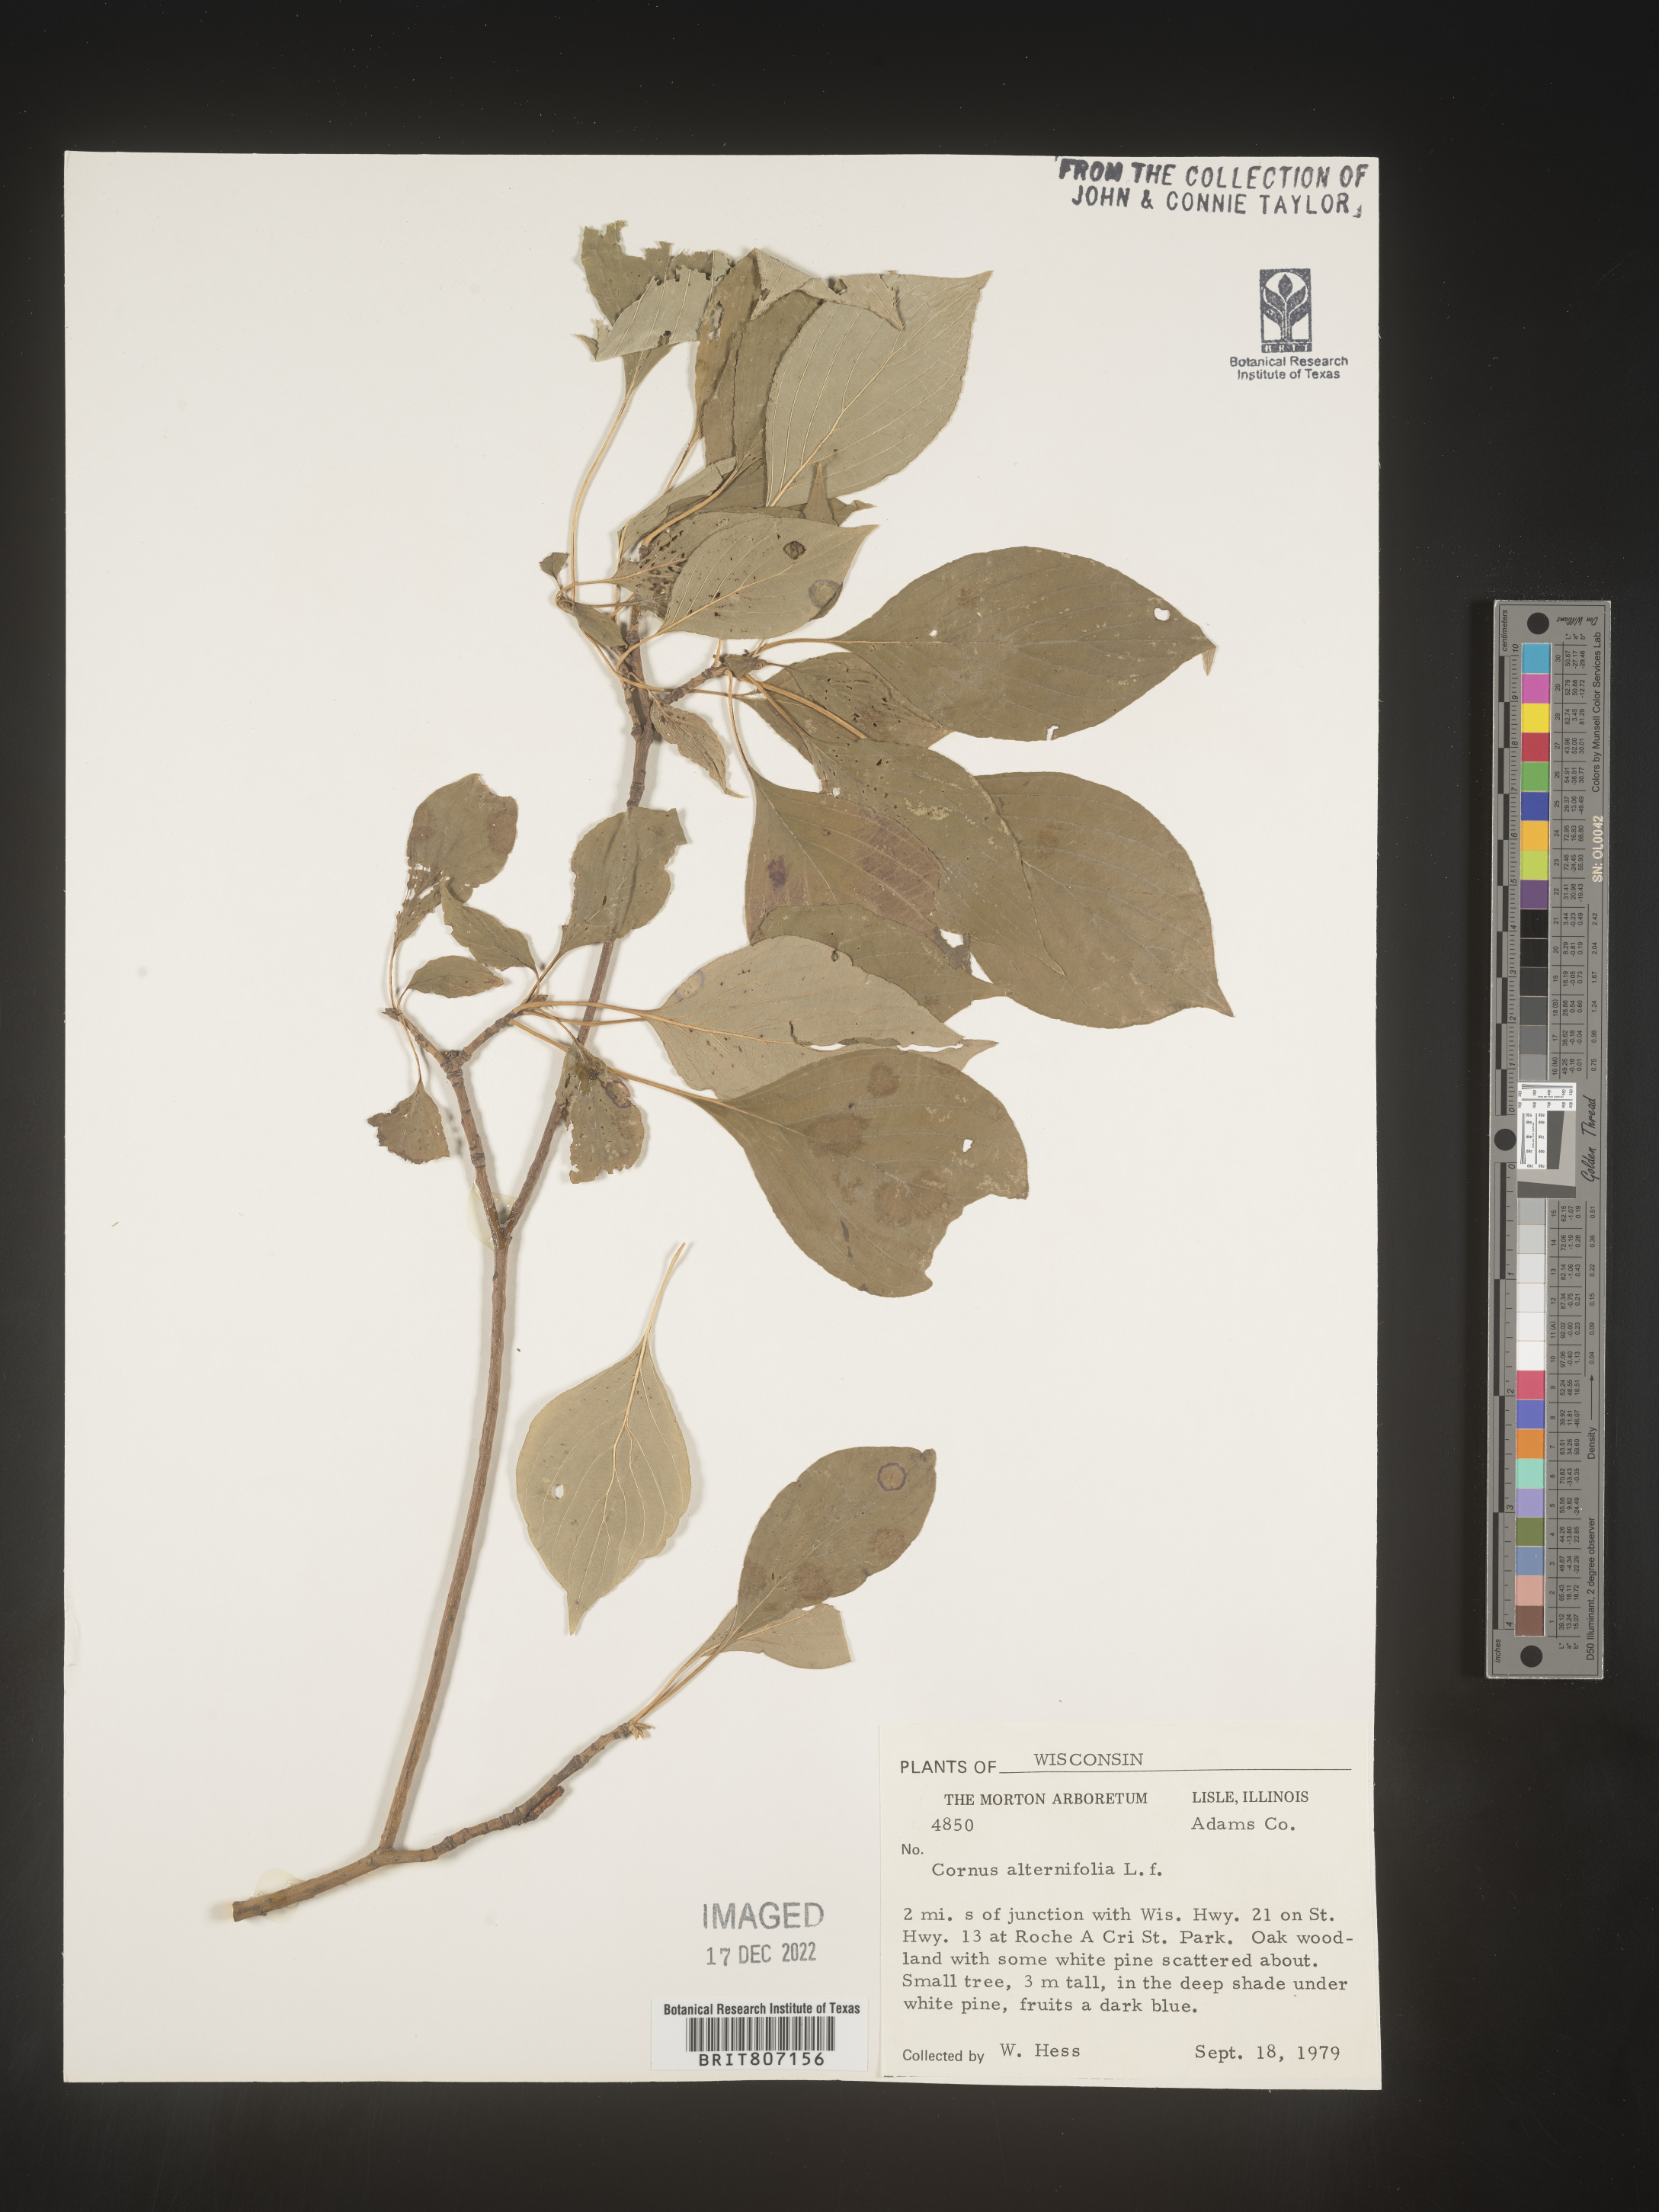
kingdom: Plantae
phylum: Tracheophyta
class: Magnoliopsida
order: Cornales
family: Cornaceae
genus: Cornus
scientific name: Cornus alternifolia
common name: Pagoda dogwood
